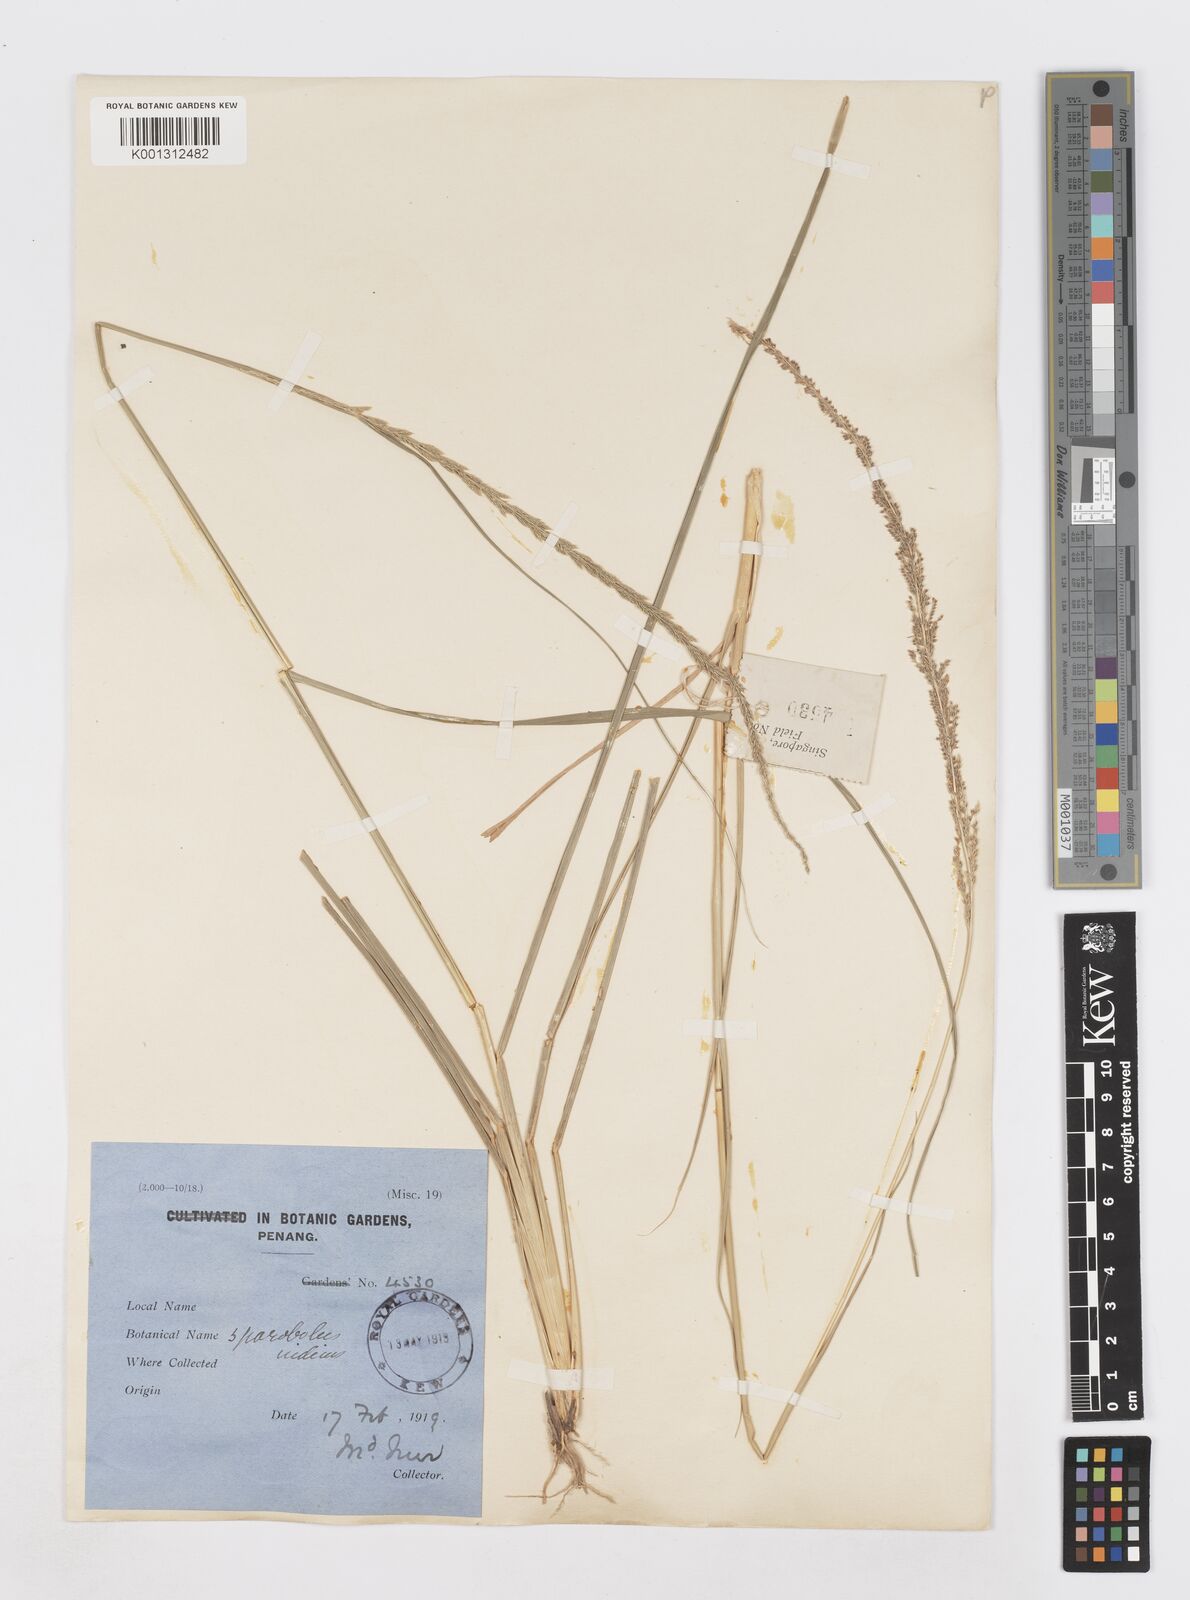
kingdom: Plantae
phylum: Tracheophyta
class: Liliopsida
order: Poales
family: Poaceae
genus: Sporobolus
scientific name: Sporobolus fertilis
